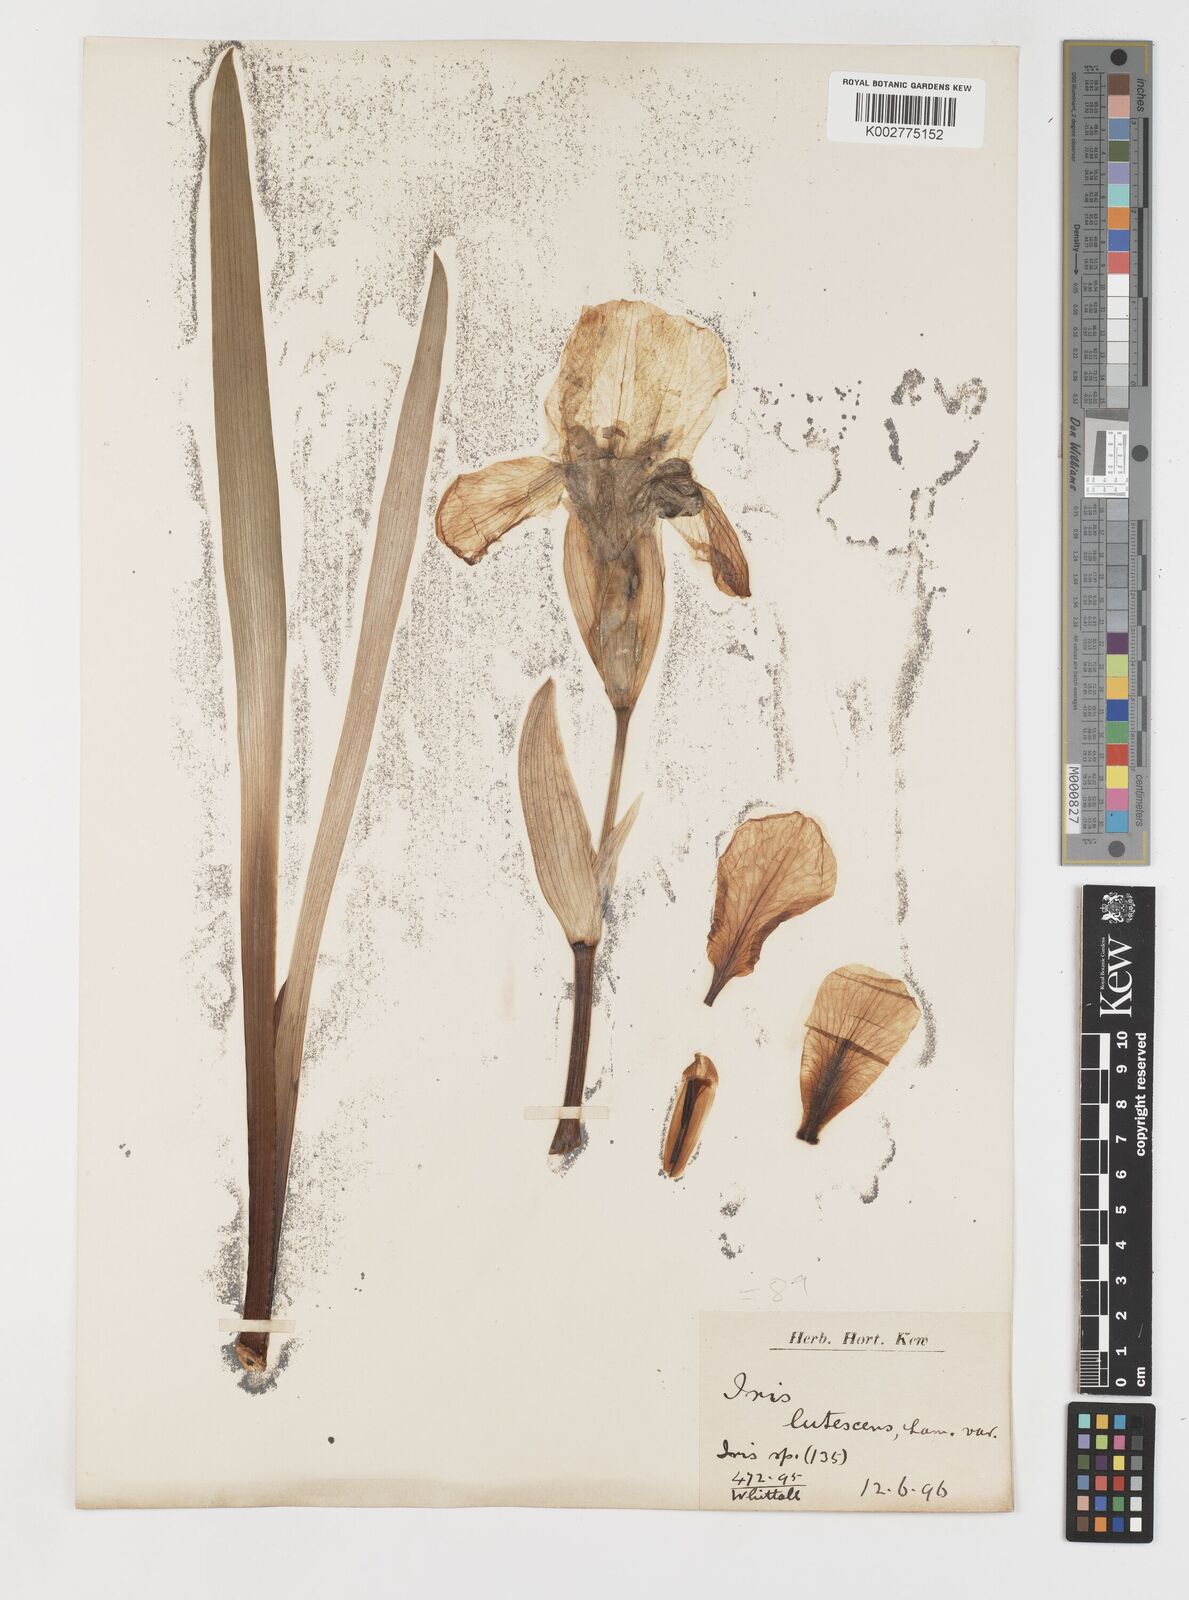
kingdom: Plantae
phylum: Tracheophyta
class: Liliopsida
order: Asparagales
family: Iridaceae
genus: Iris
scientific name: Iris schachtii
